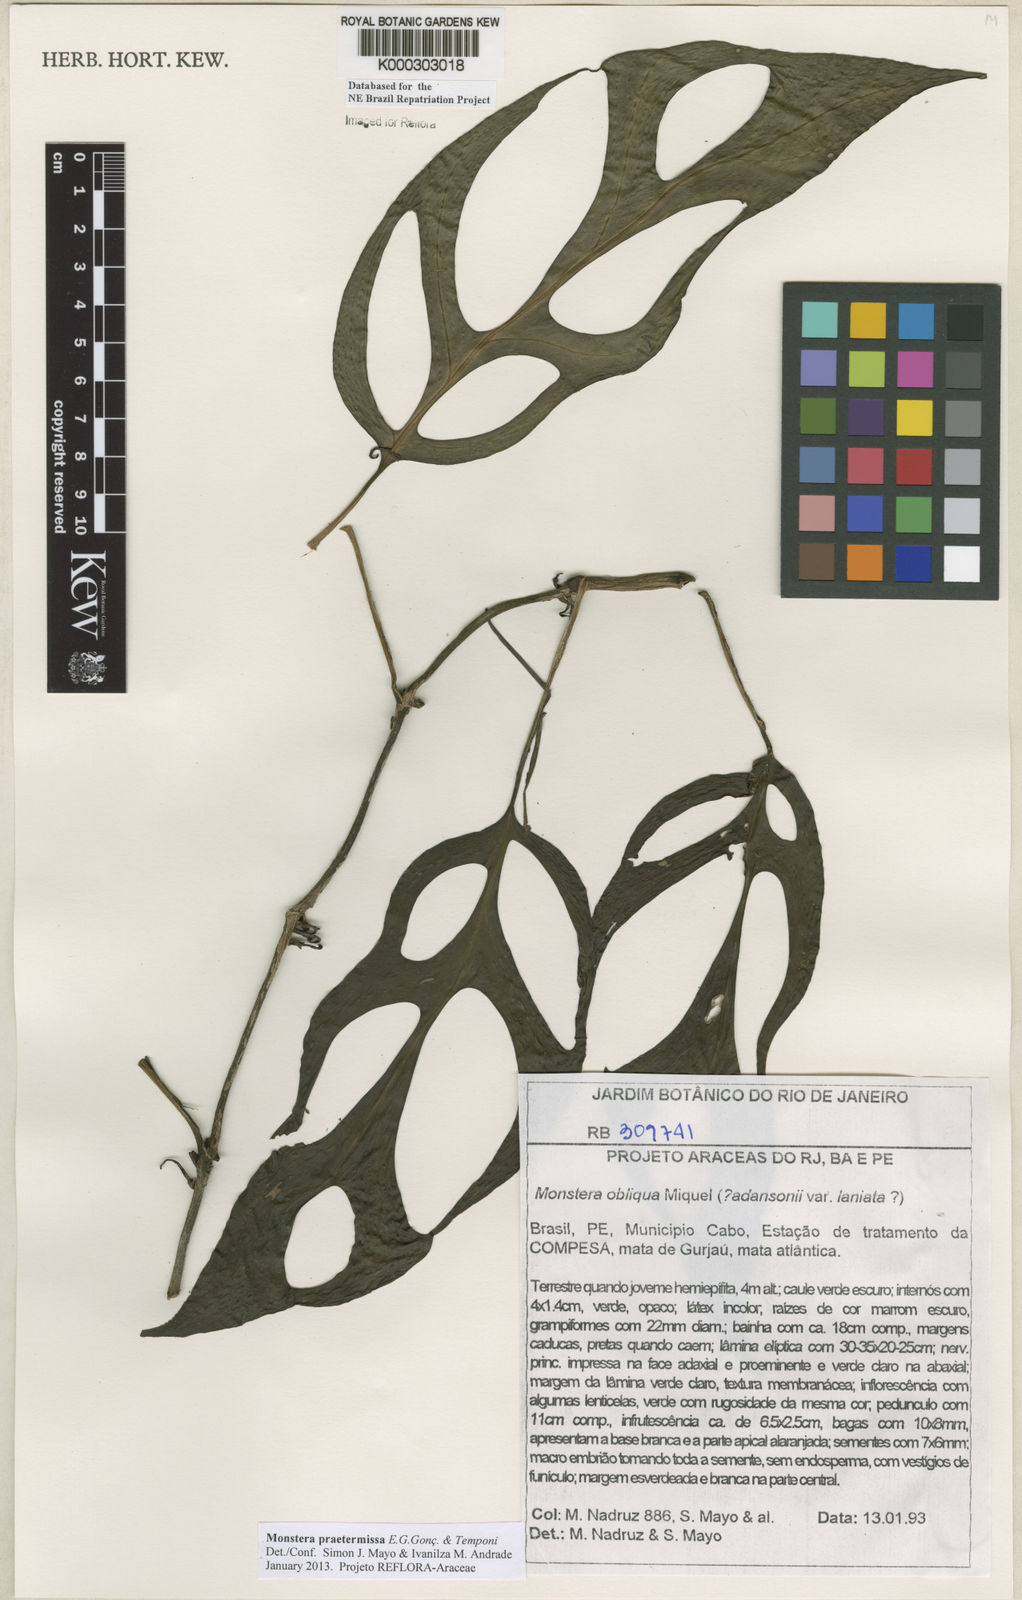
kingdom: Plantae
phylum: Tracheophyta
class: Liliopsida
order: Alismatales
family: Araceae
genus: Monstera
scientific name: Monstera obliqua
